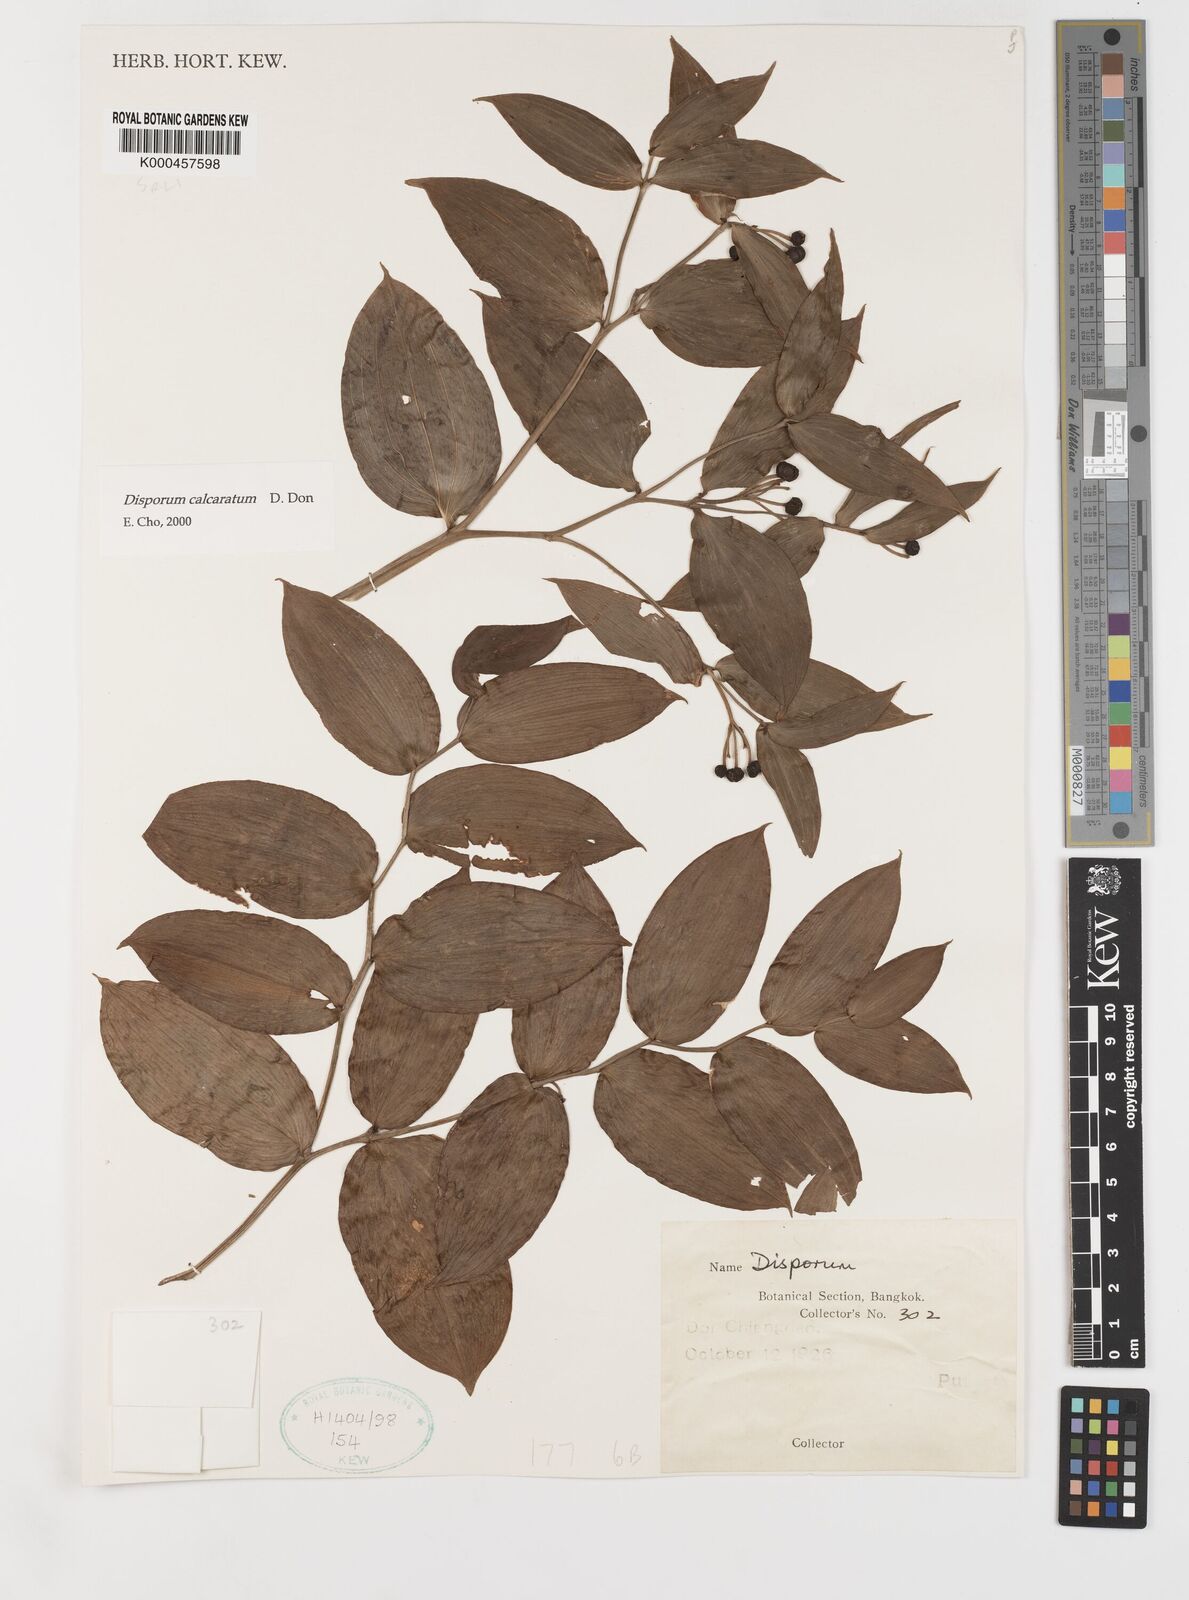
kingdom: Plantae
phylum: Tracheophyta
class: Liliopsida
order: Liliales
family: Colchicaceae
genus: Disporum
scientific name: Disporum calcaratum
